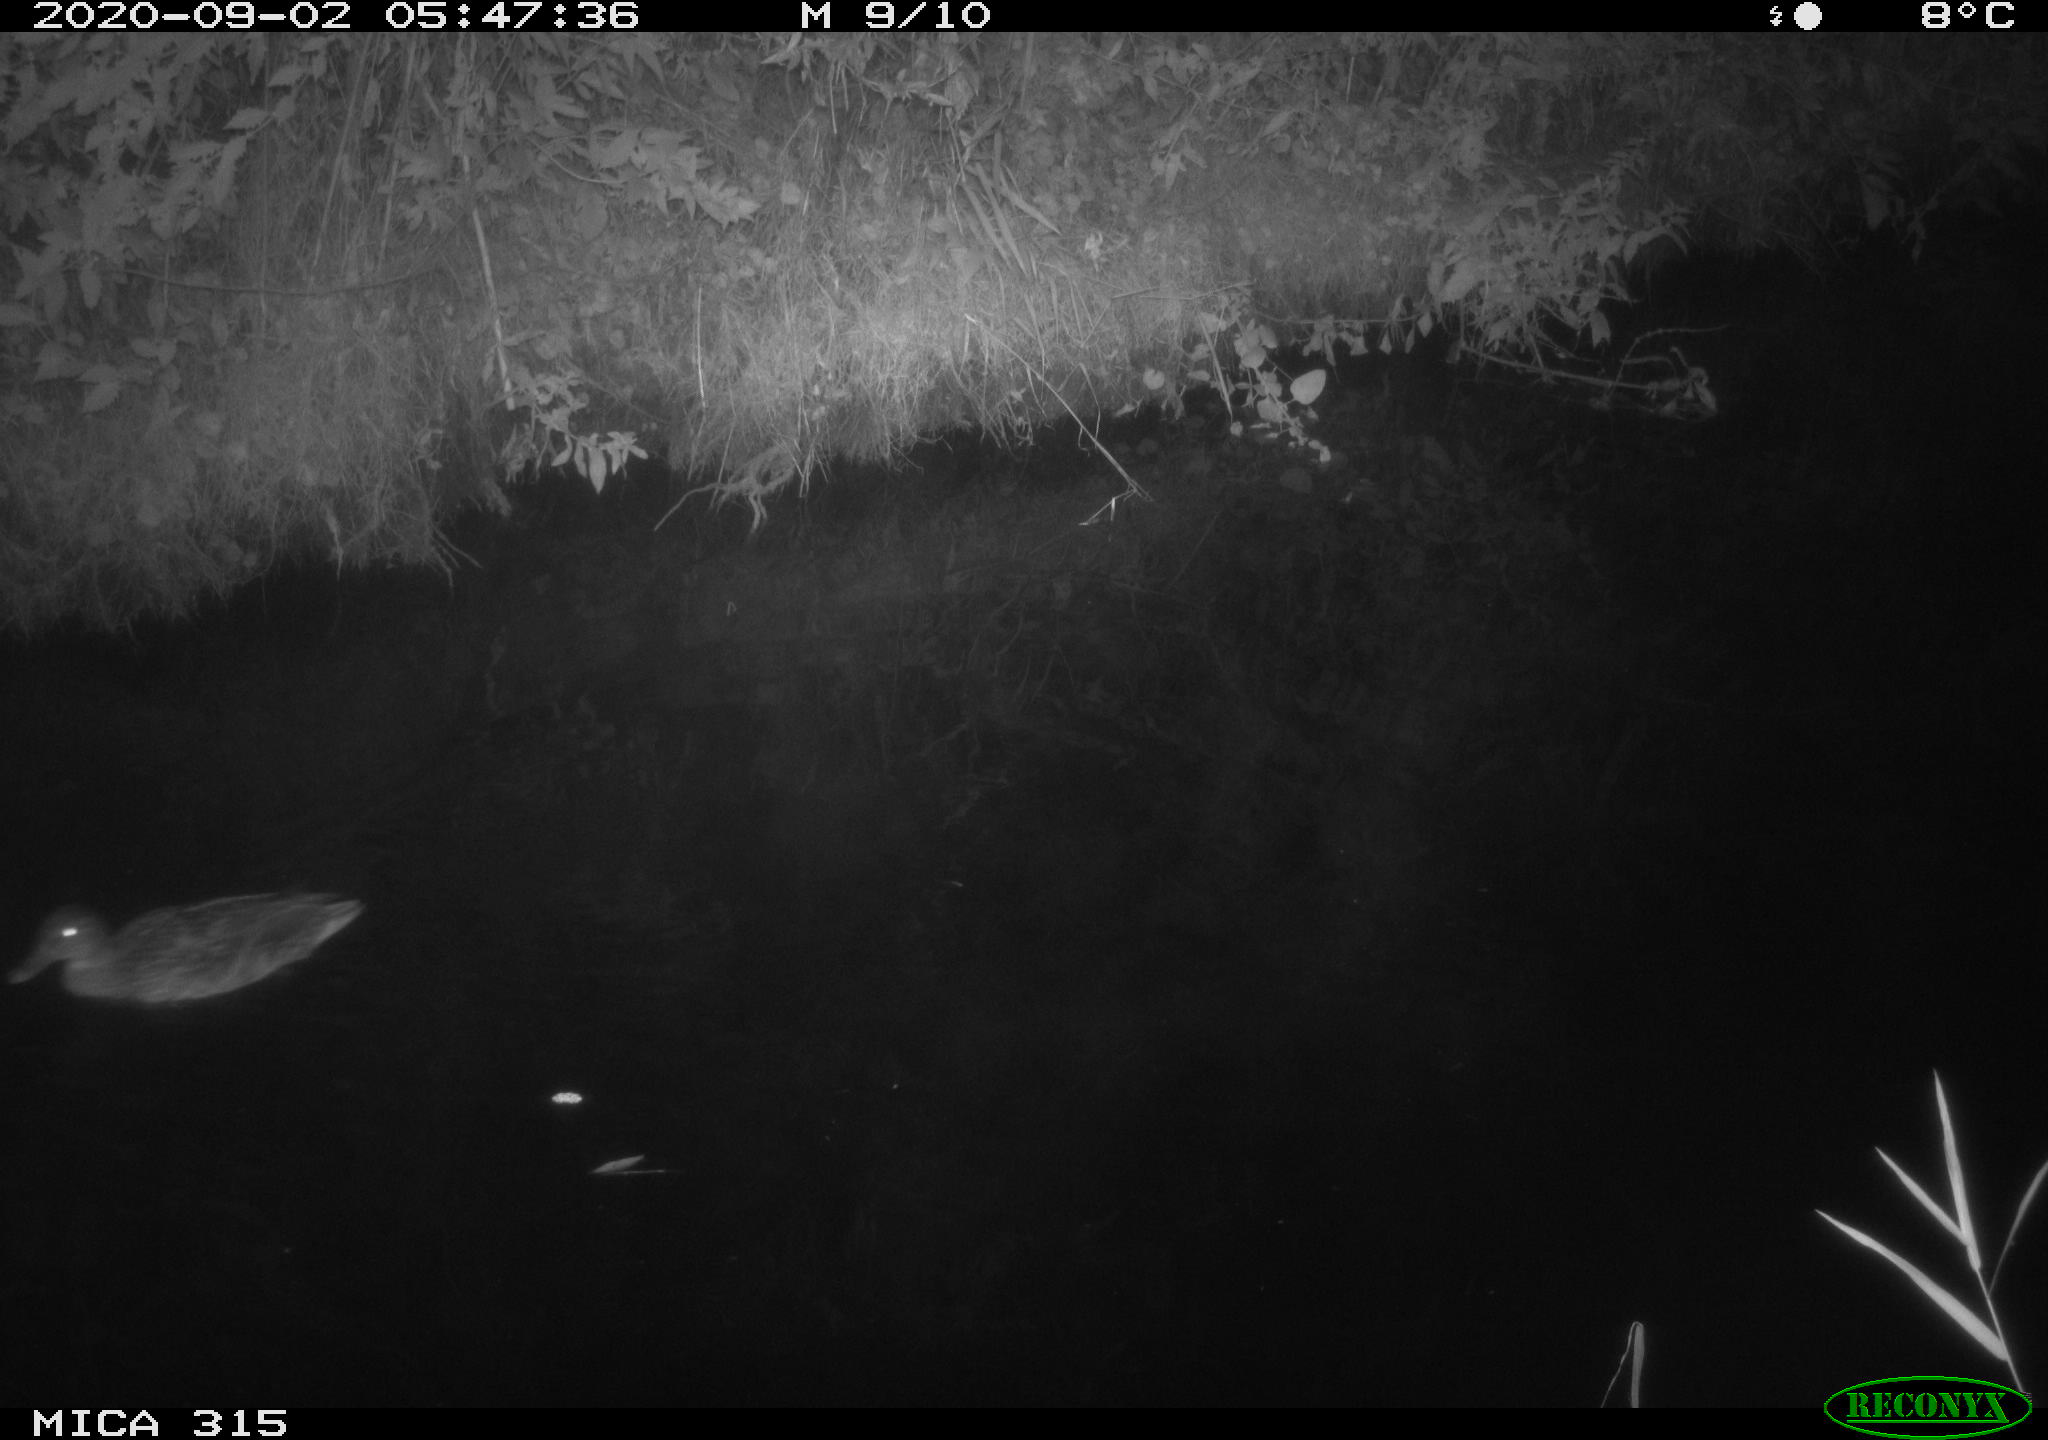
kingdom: Animalia
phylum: Chordata
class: Aves
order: Anseriformes
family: Anatidae
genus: Anas
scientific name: Anas platyrhynchos
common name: Mallard
